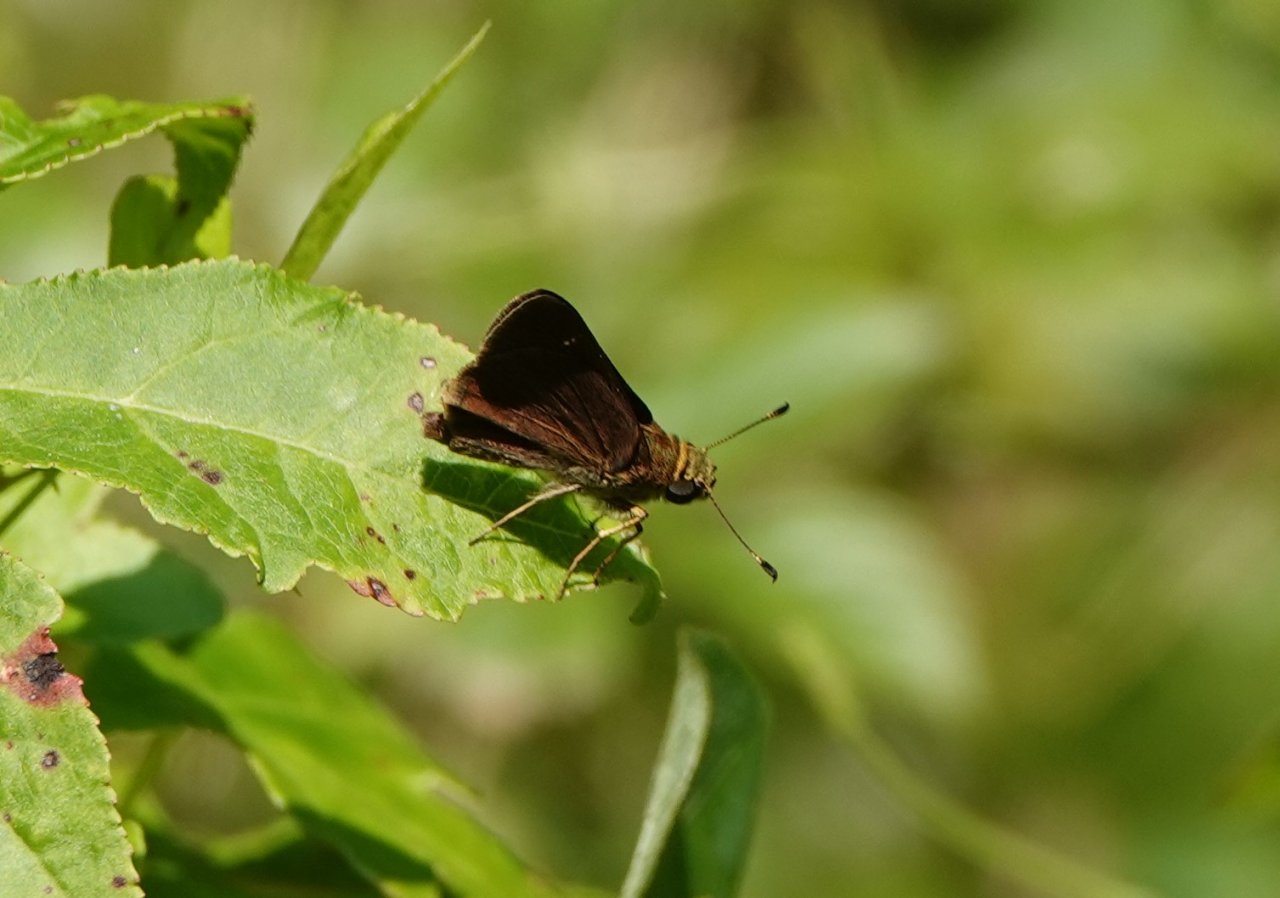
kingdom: Animalia
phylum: Arthropoda
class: Insecta
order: Lepidoptera
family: Hesperiidae
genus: Euphyes
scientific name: Euphyes vestris
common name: Dun Skipper
